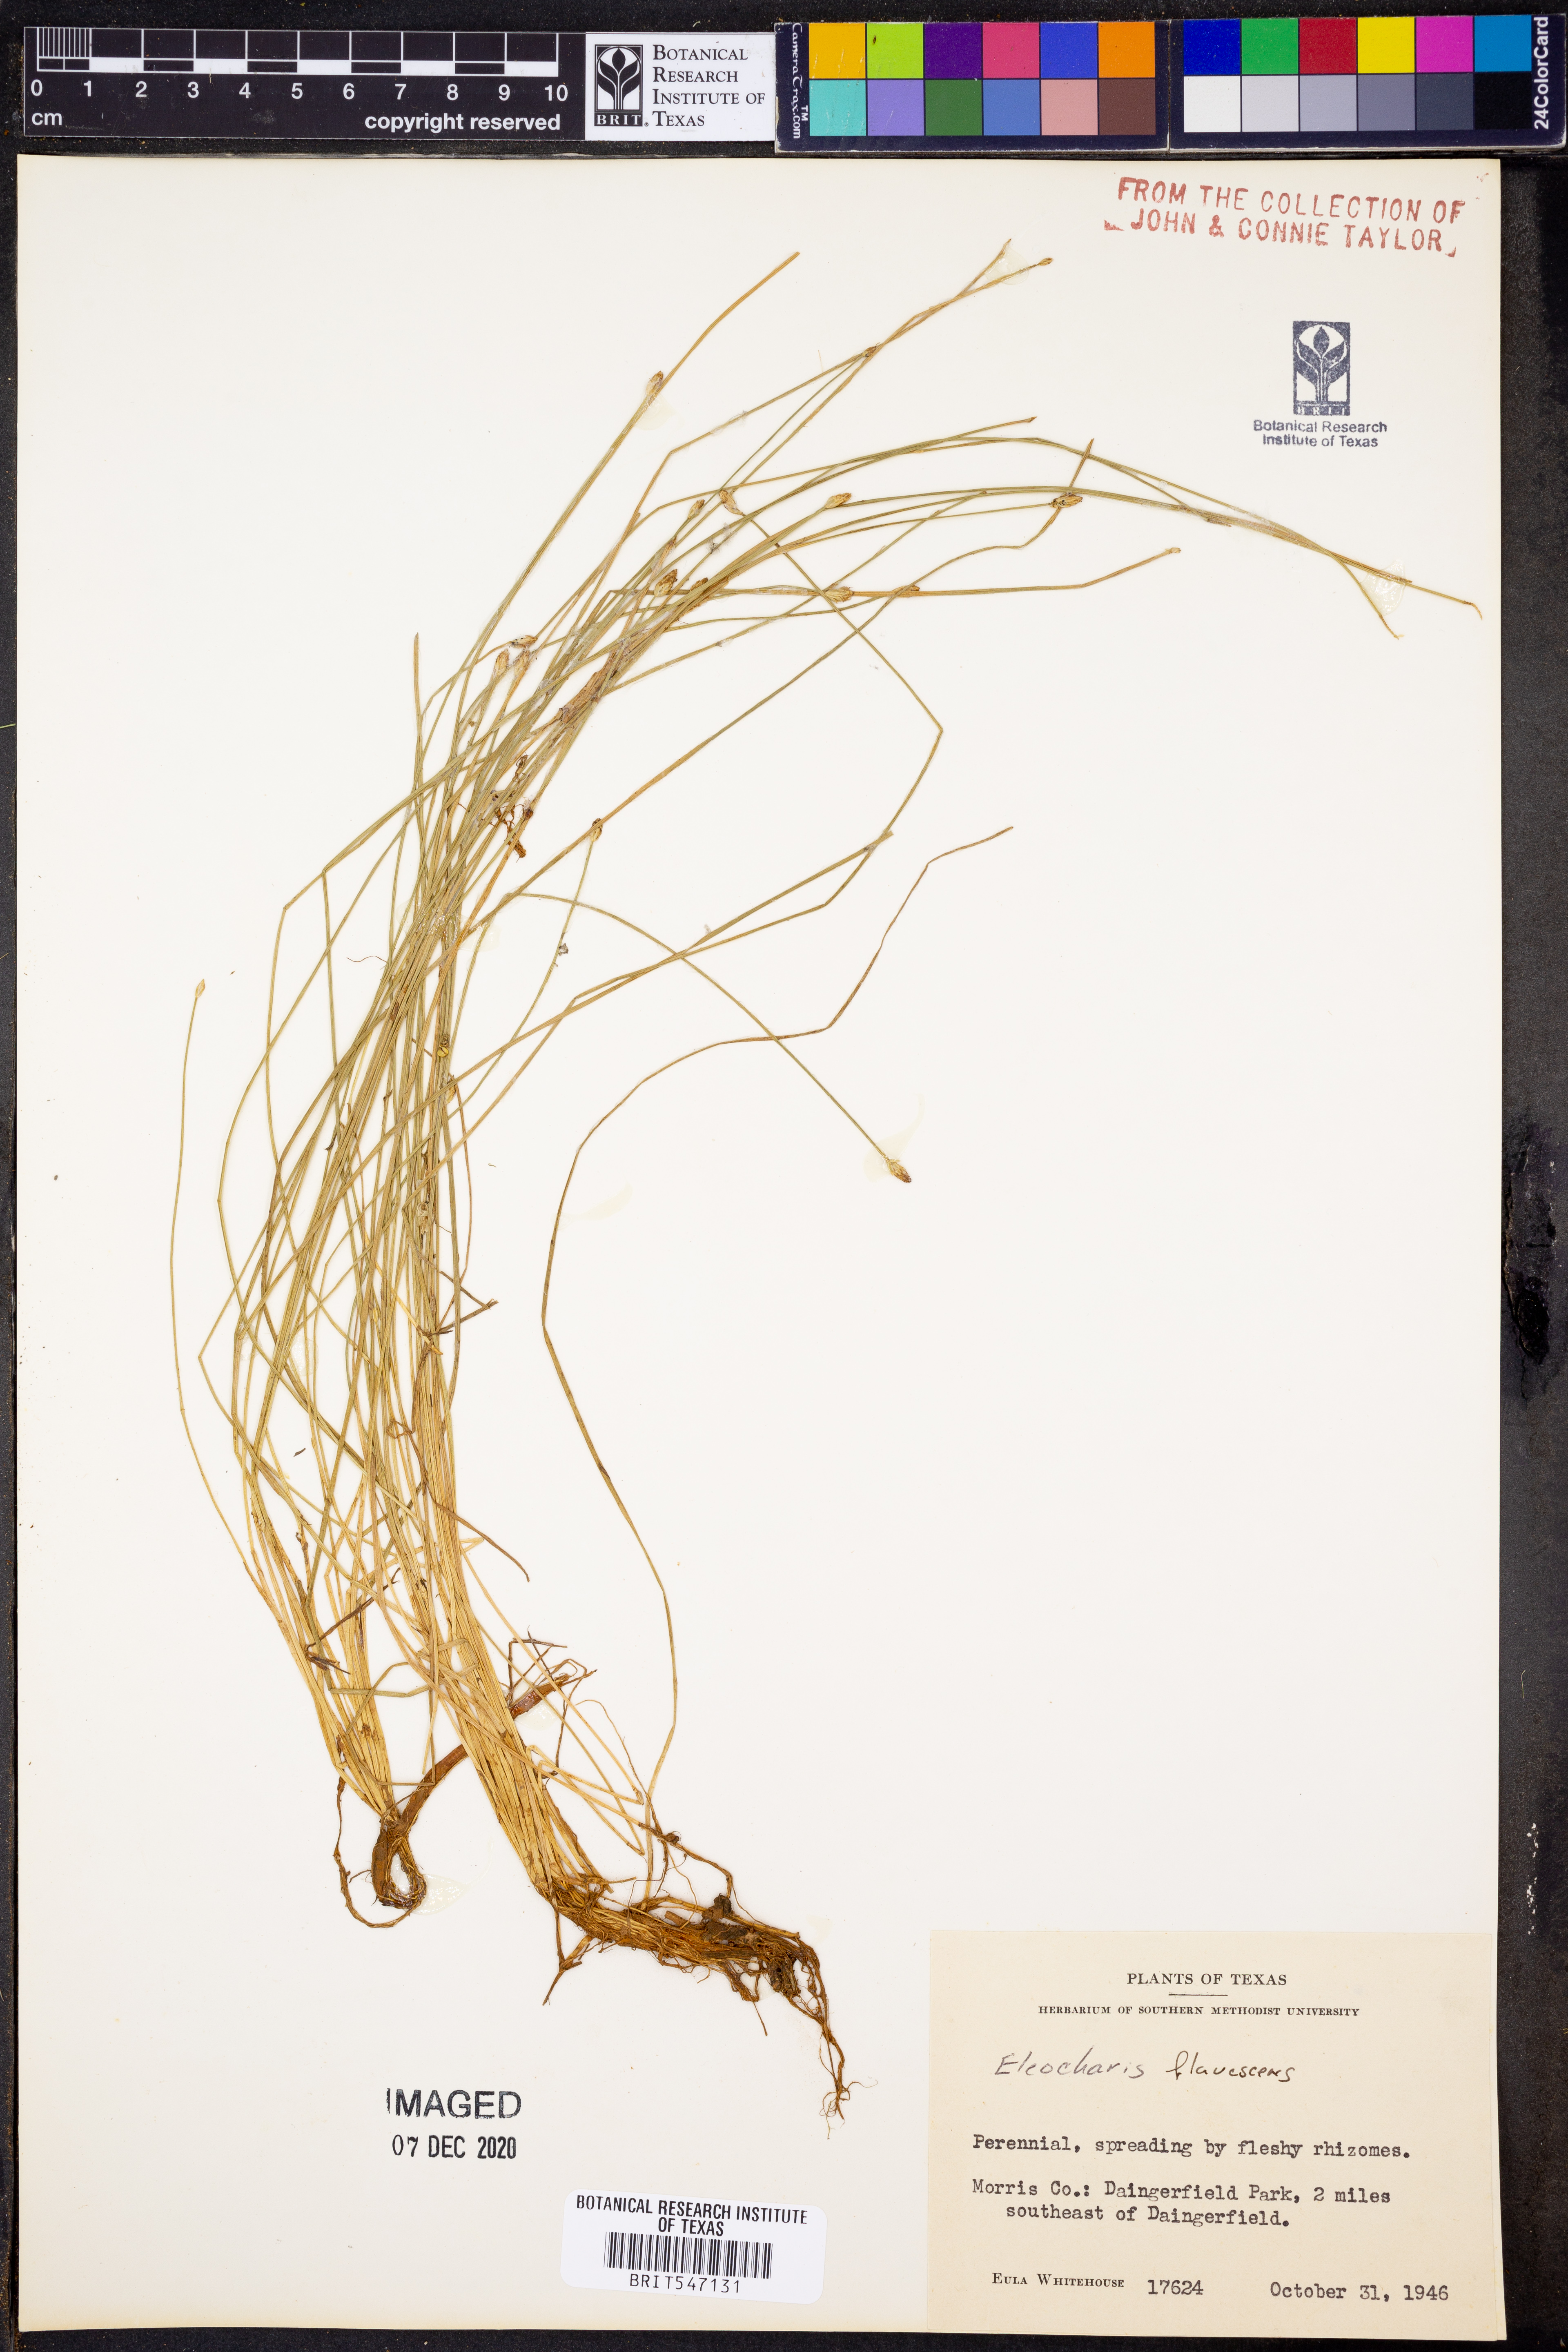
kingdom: Plantae
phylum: Tracheophyta
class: Liliopsida
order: Poales
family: Cyperaceae
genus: Eleocharis
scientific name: Eleocharis flavescens
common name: Yellow spikerush
